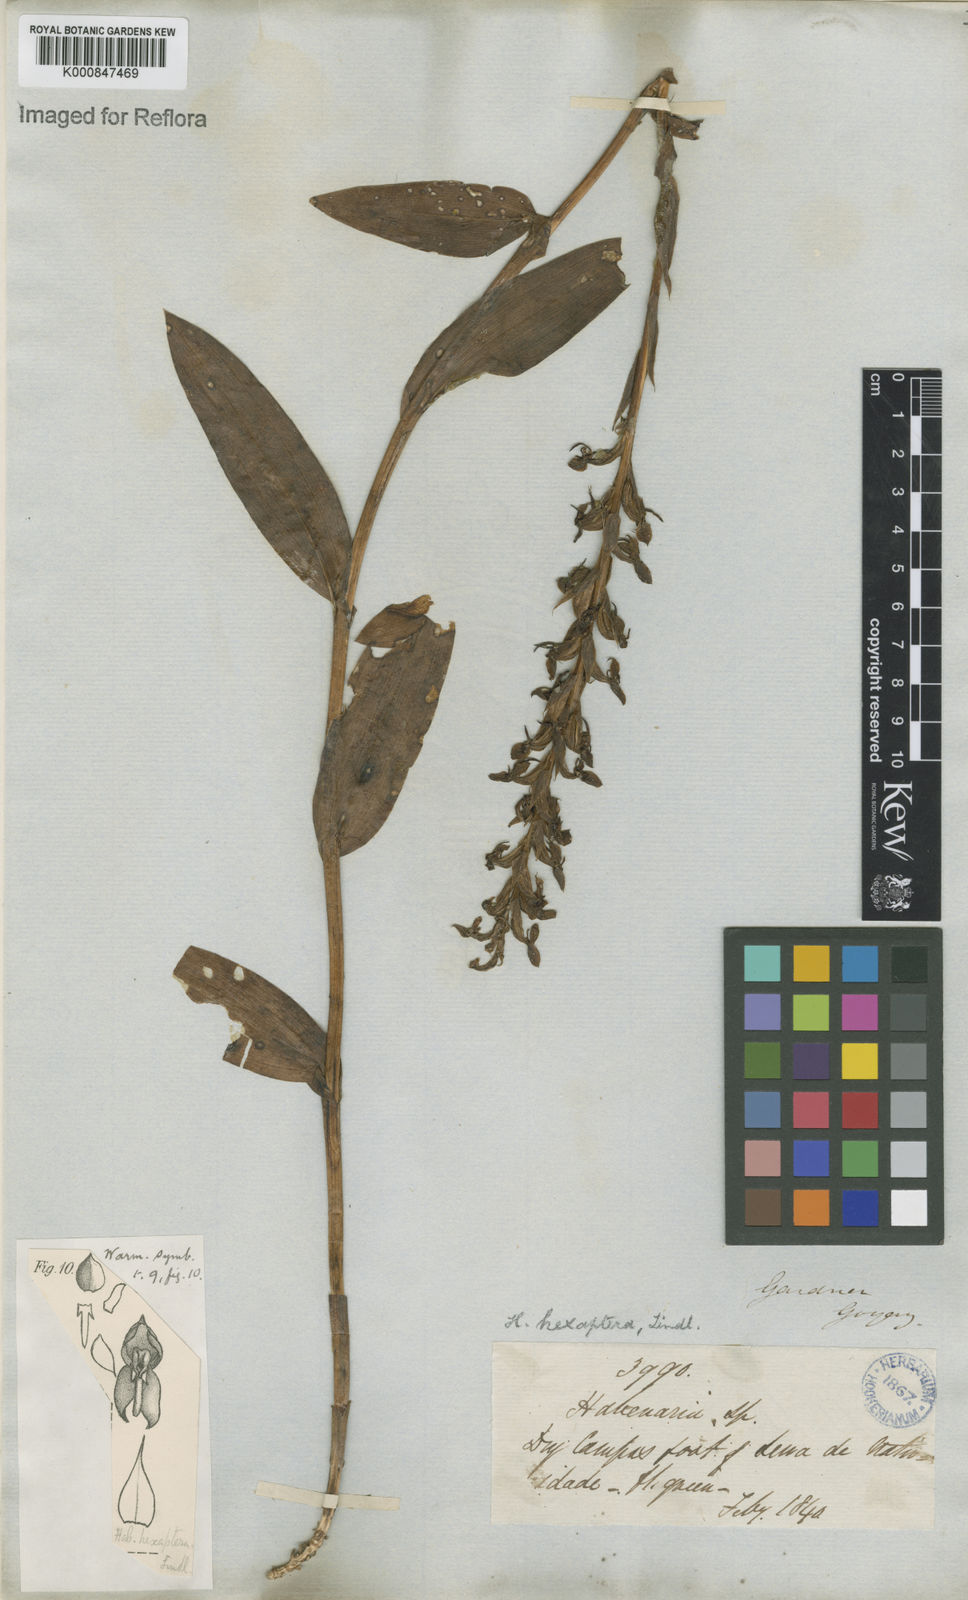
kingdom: Plantae
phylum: Tracheophyta
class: Liliopsida
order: Asparagales
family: Orchidaceae
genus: Habenaria
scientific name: Habenaria hexaptera
